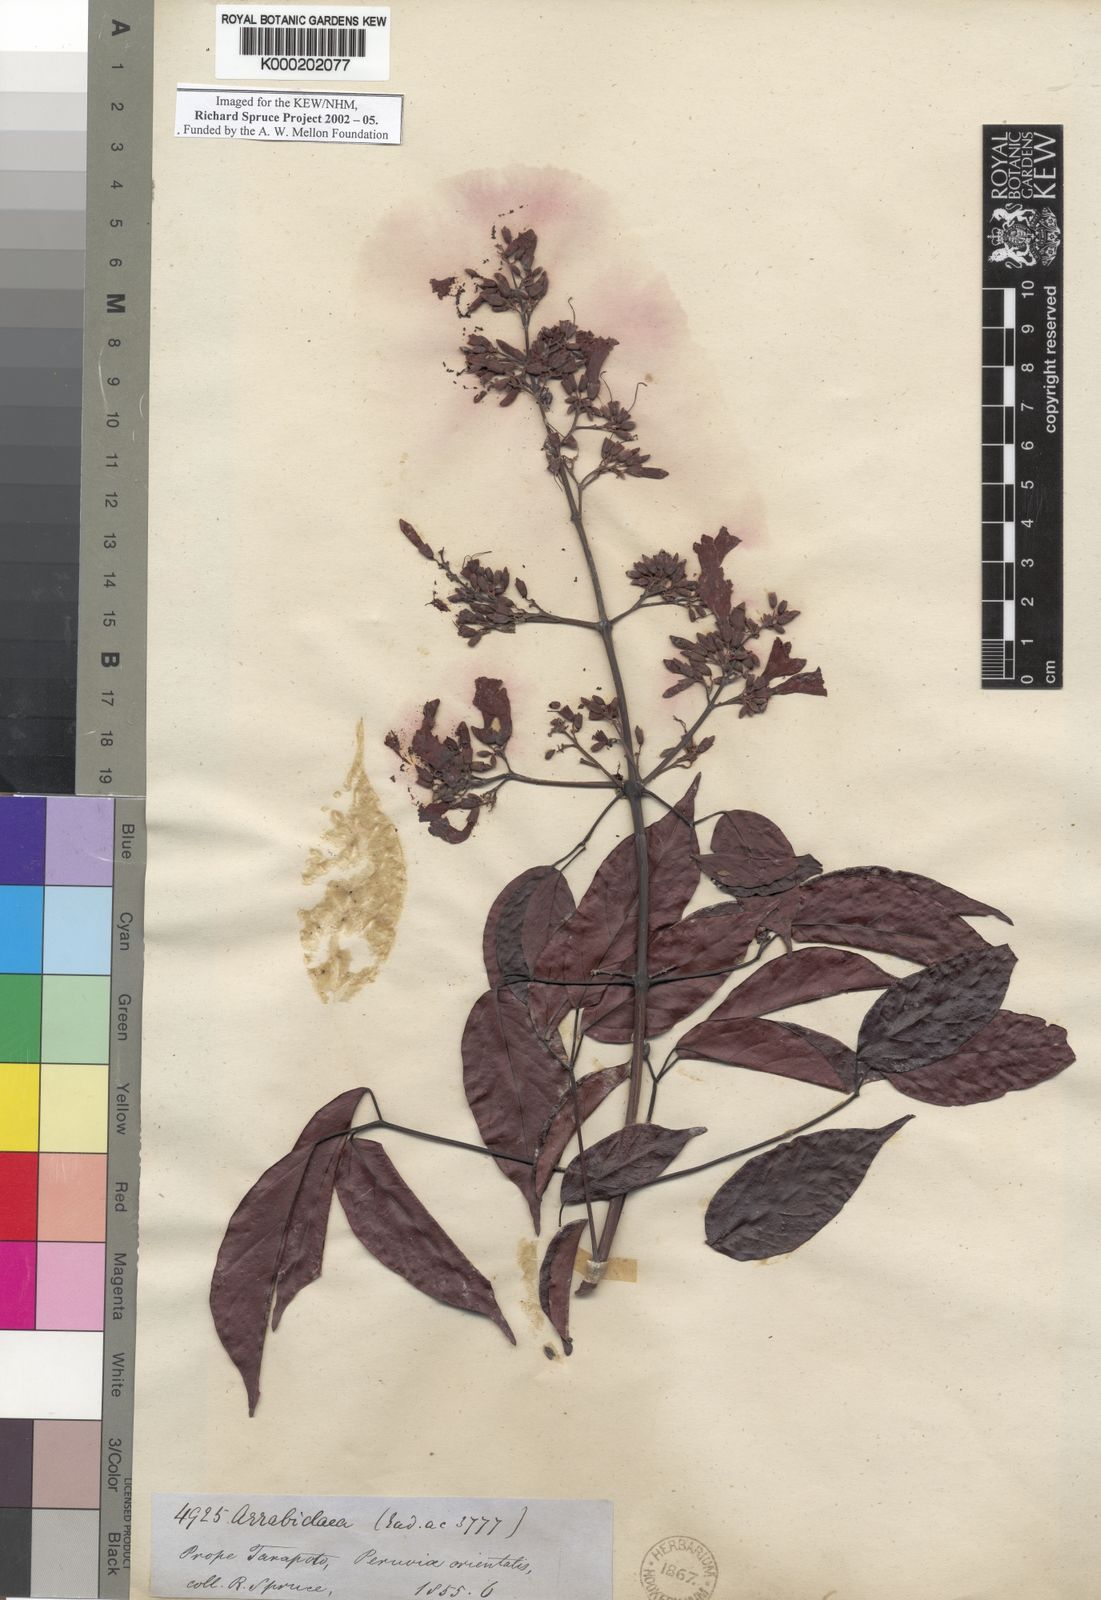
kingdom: Plantae
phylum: Tracheophyta
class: Magnoliopsida
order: Lamiales
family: Bignoniaceae
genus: Fridericia
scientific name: Fridericia chica
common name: Cricketvine
